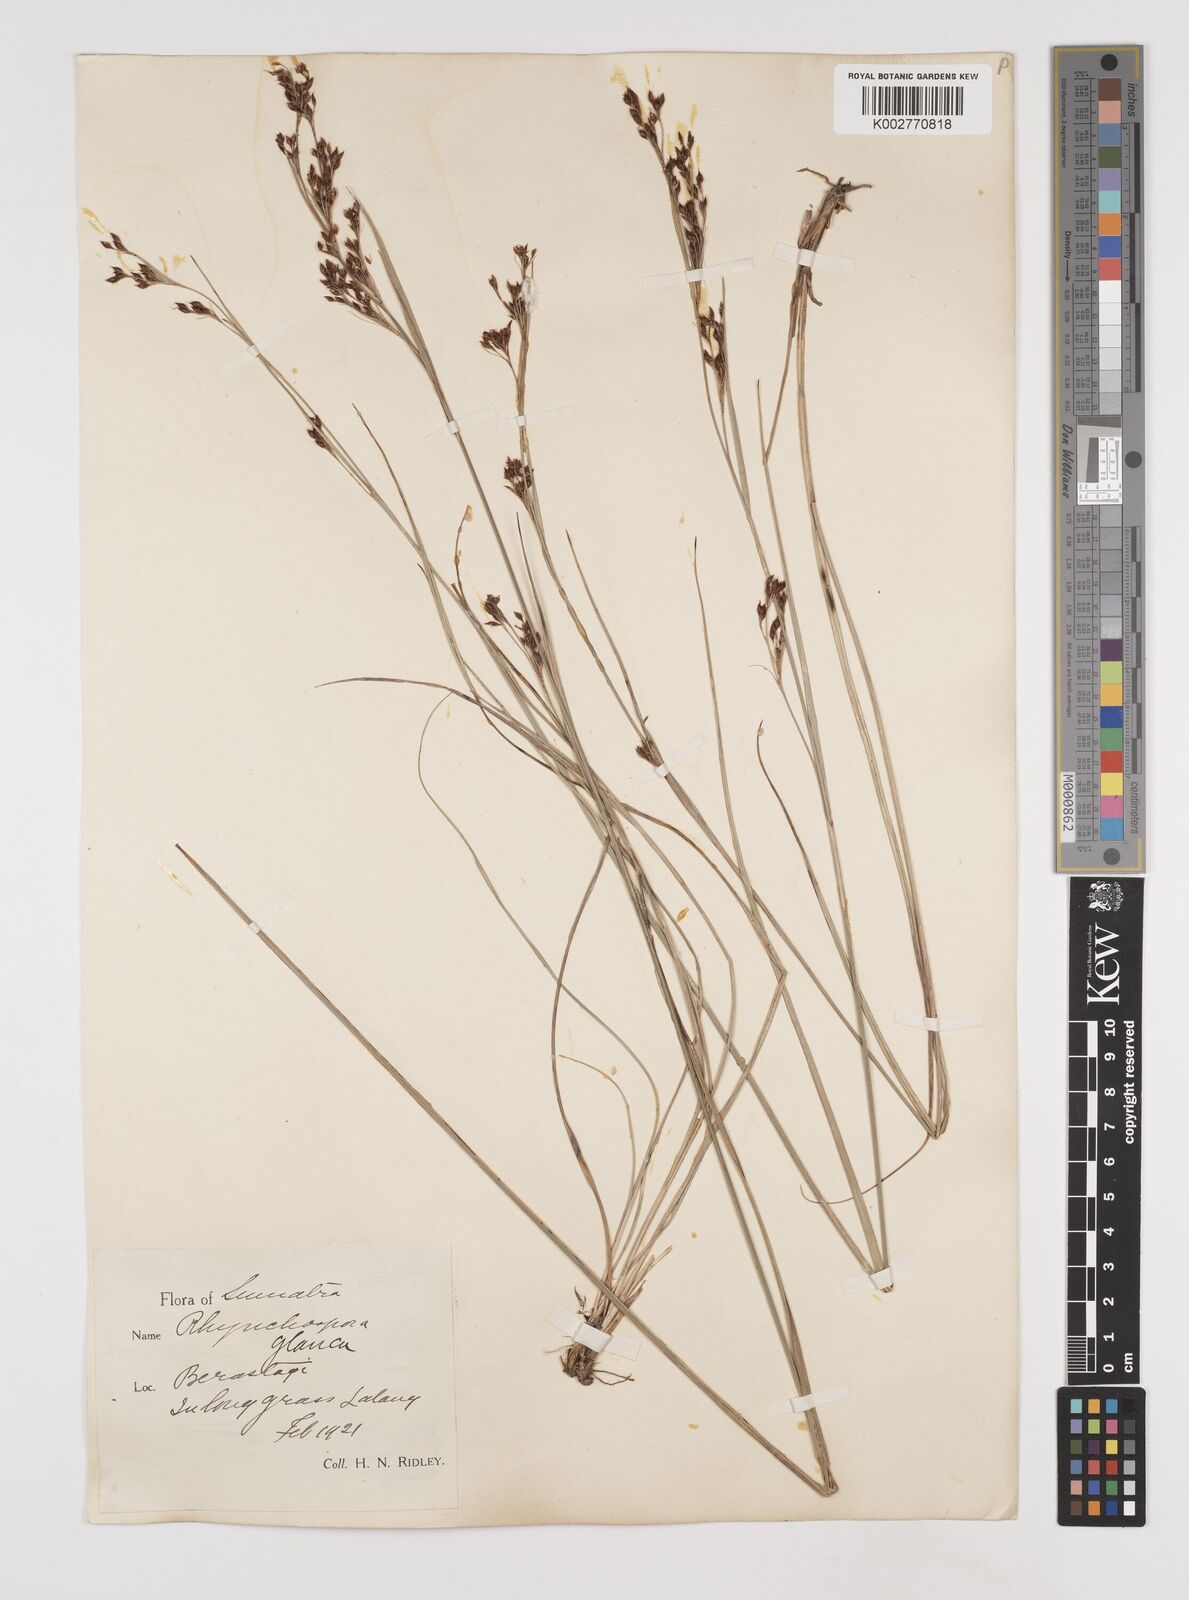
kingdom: Plantae
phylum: Tracheophyta
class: Liliopsida
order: Poales
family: Cyperaceae
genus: Rhynchospora
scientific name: Rhynchospora rugosa
